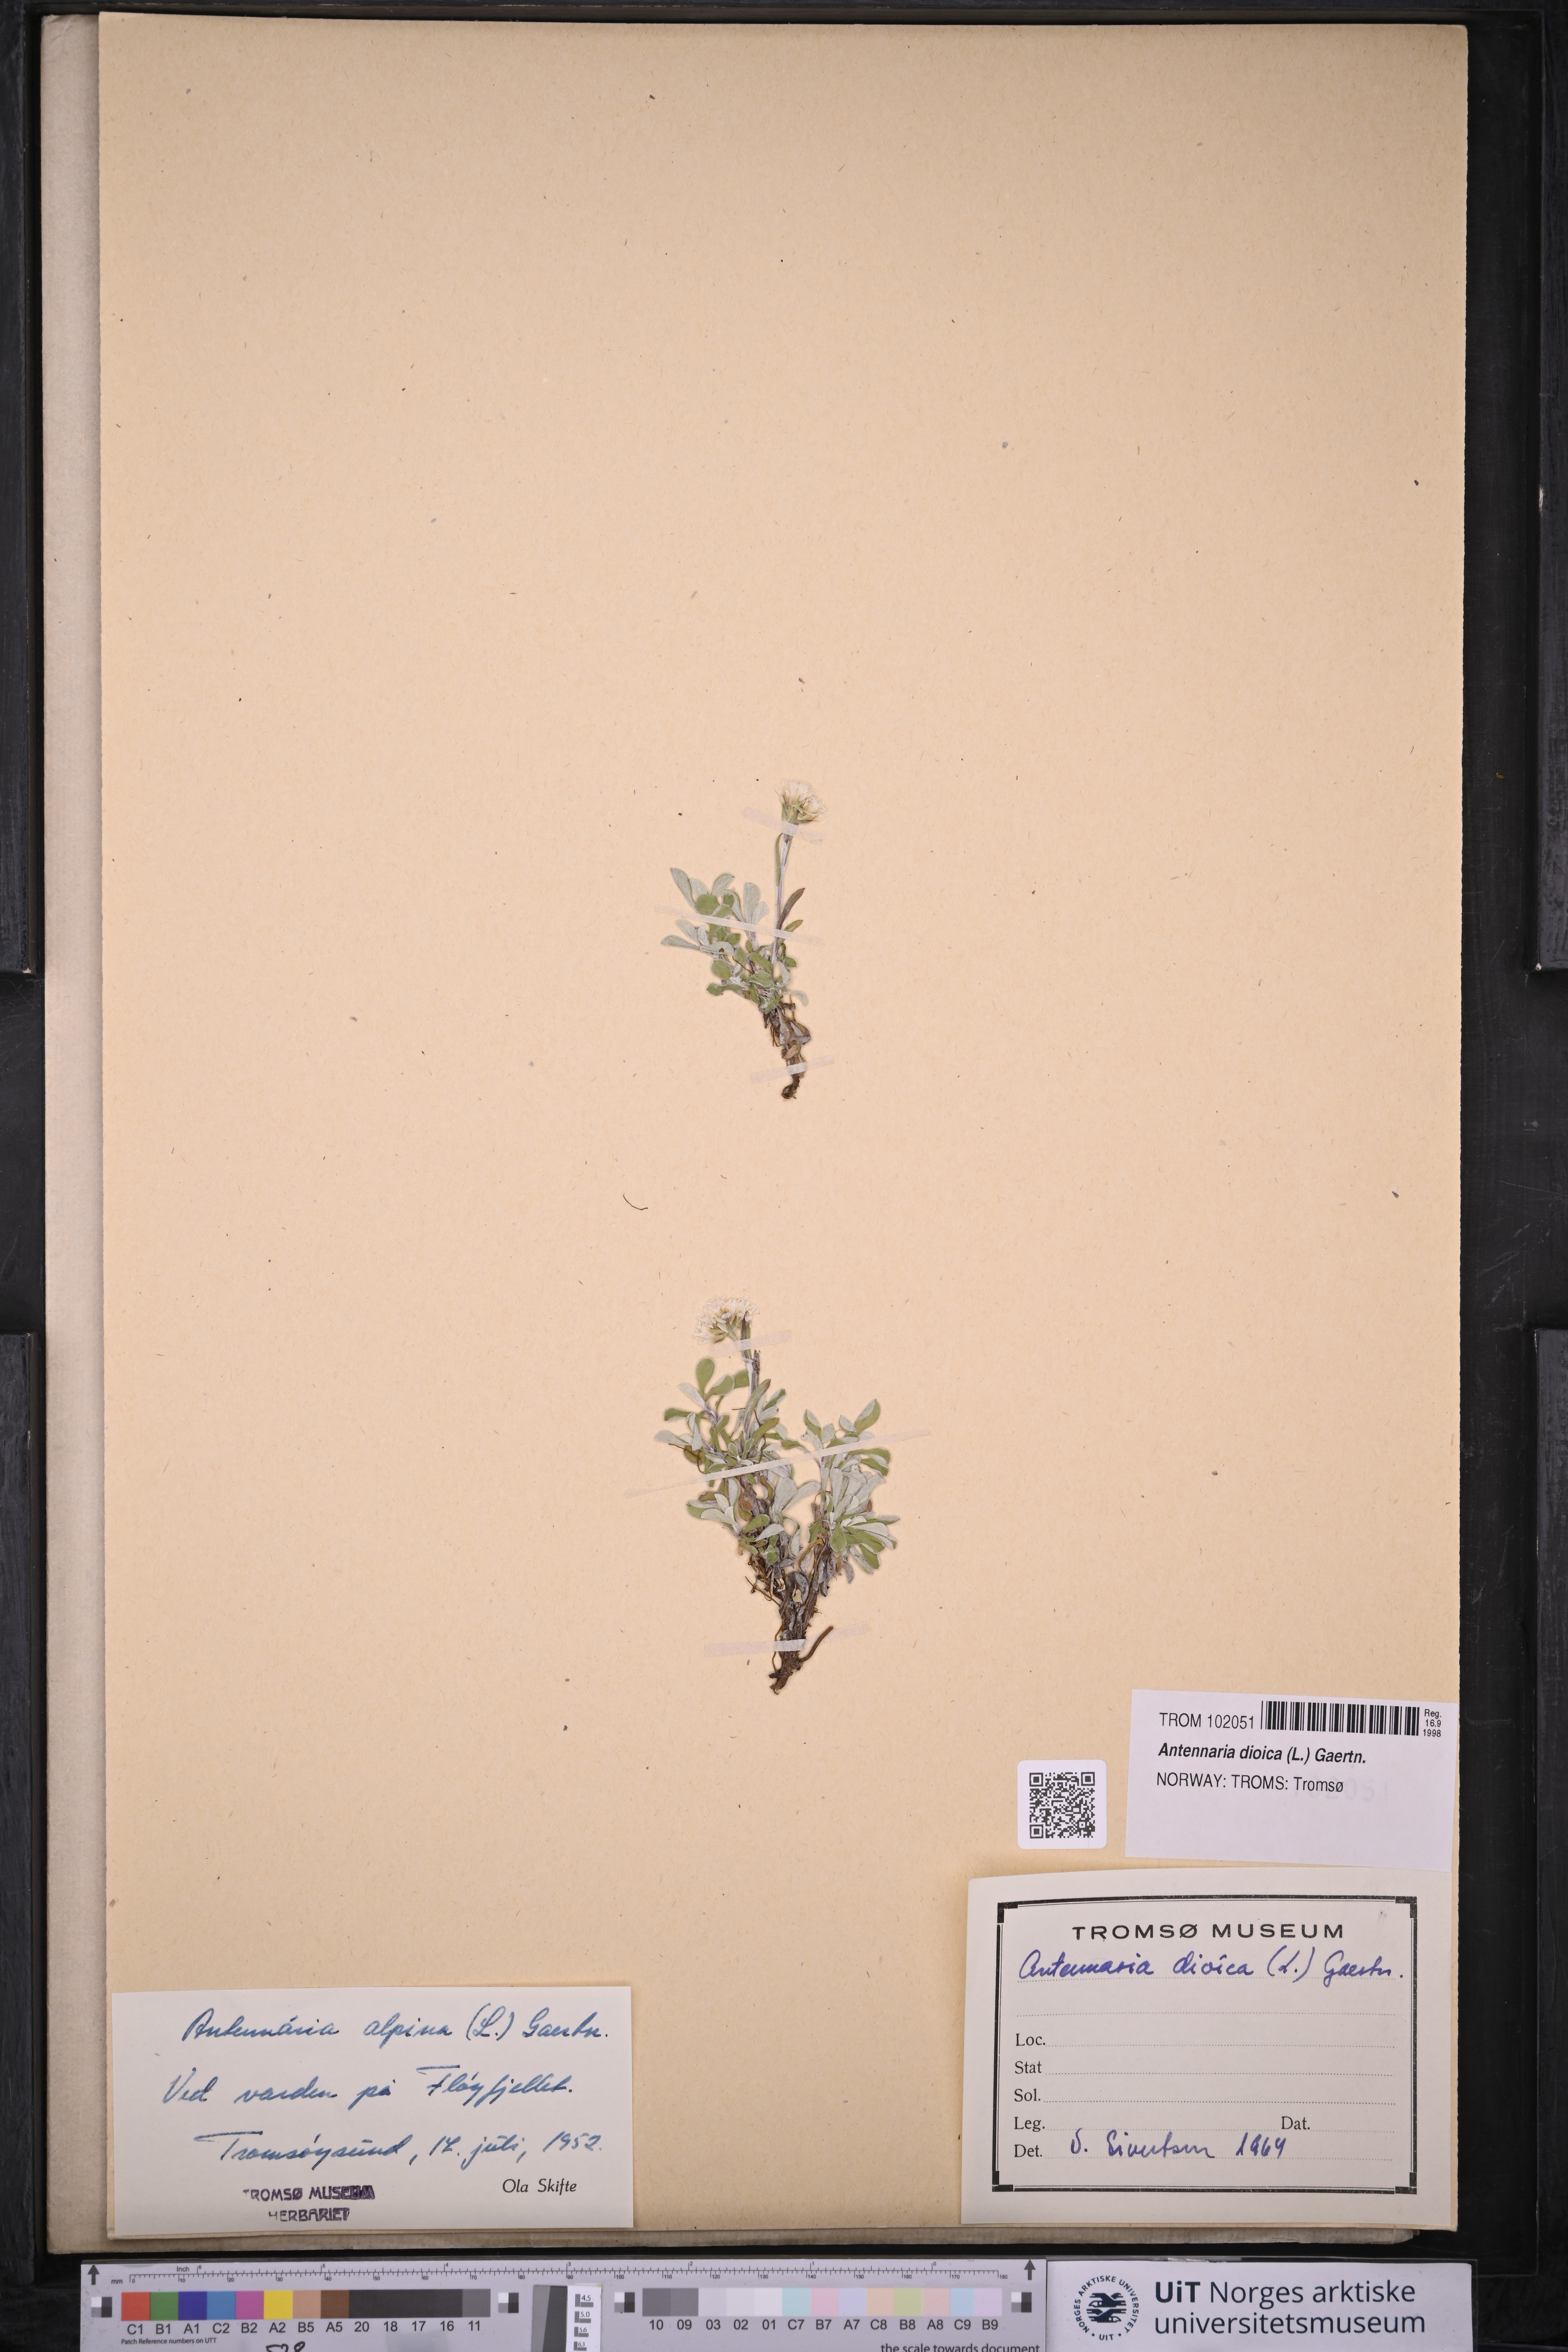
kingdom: Plantae
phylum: Tracheophyta
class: Magnoliopsida
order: Asterales
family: Asteraceae
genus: Antennaria
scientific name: Antennaria dioica
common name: Mountain everlasting
